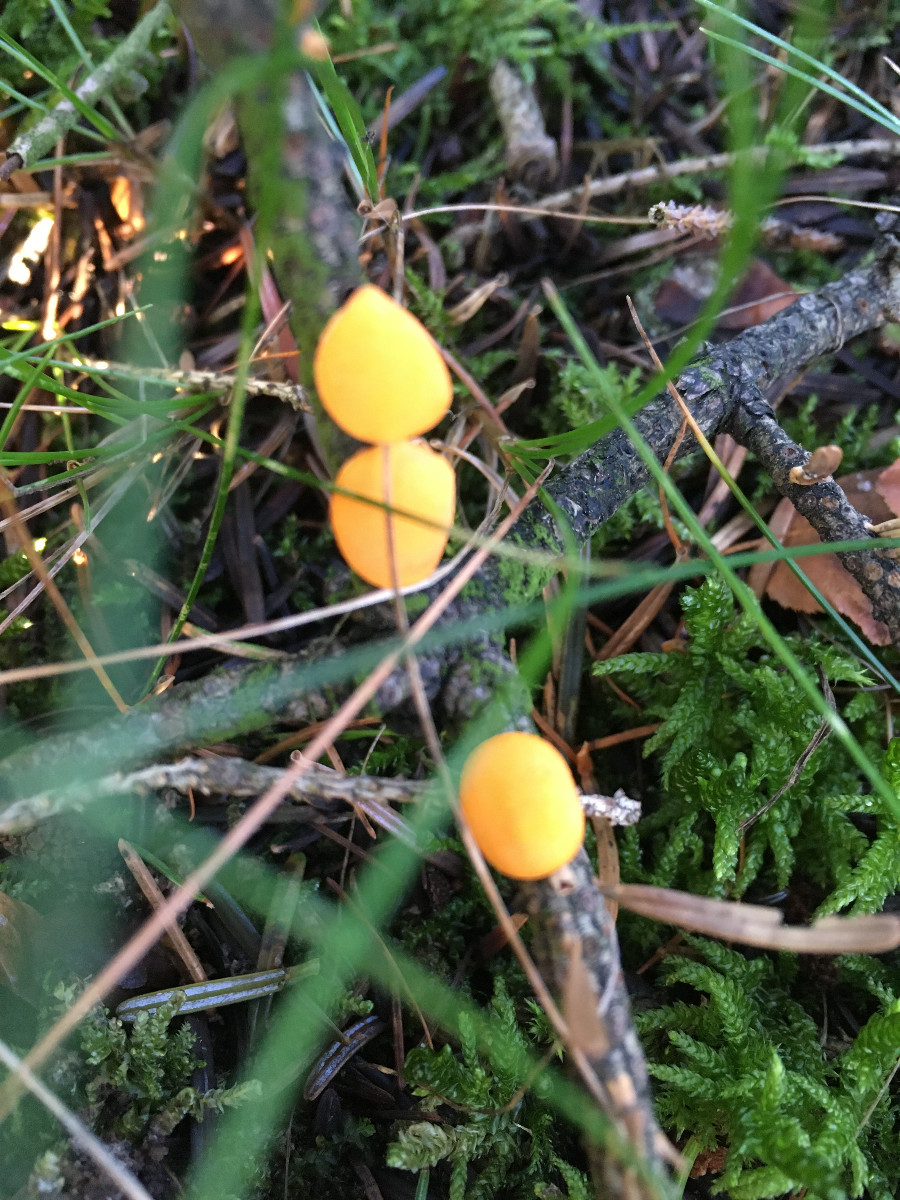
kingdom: Fungi
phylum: Ascomycota
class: Pezizomycetes
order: Pezizales
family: Sarcoscyphaceae
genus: Pithya
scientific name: Pithya vulgaris
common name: stor dukatbæger
